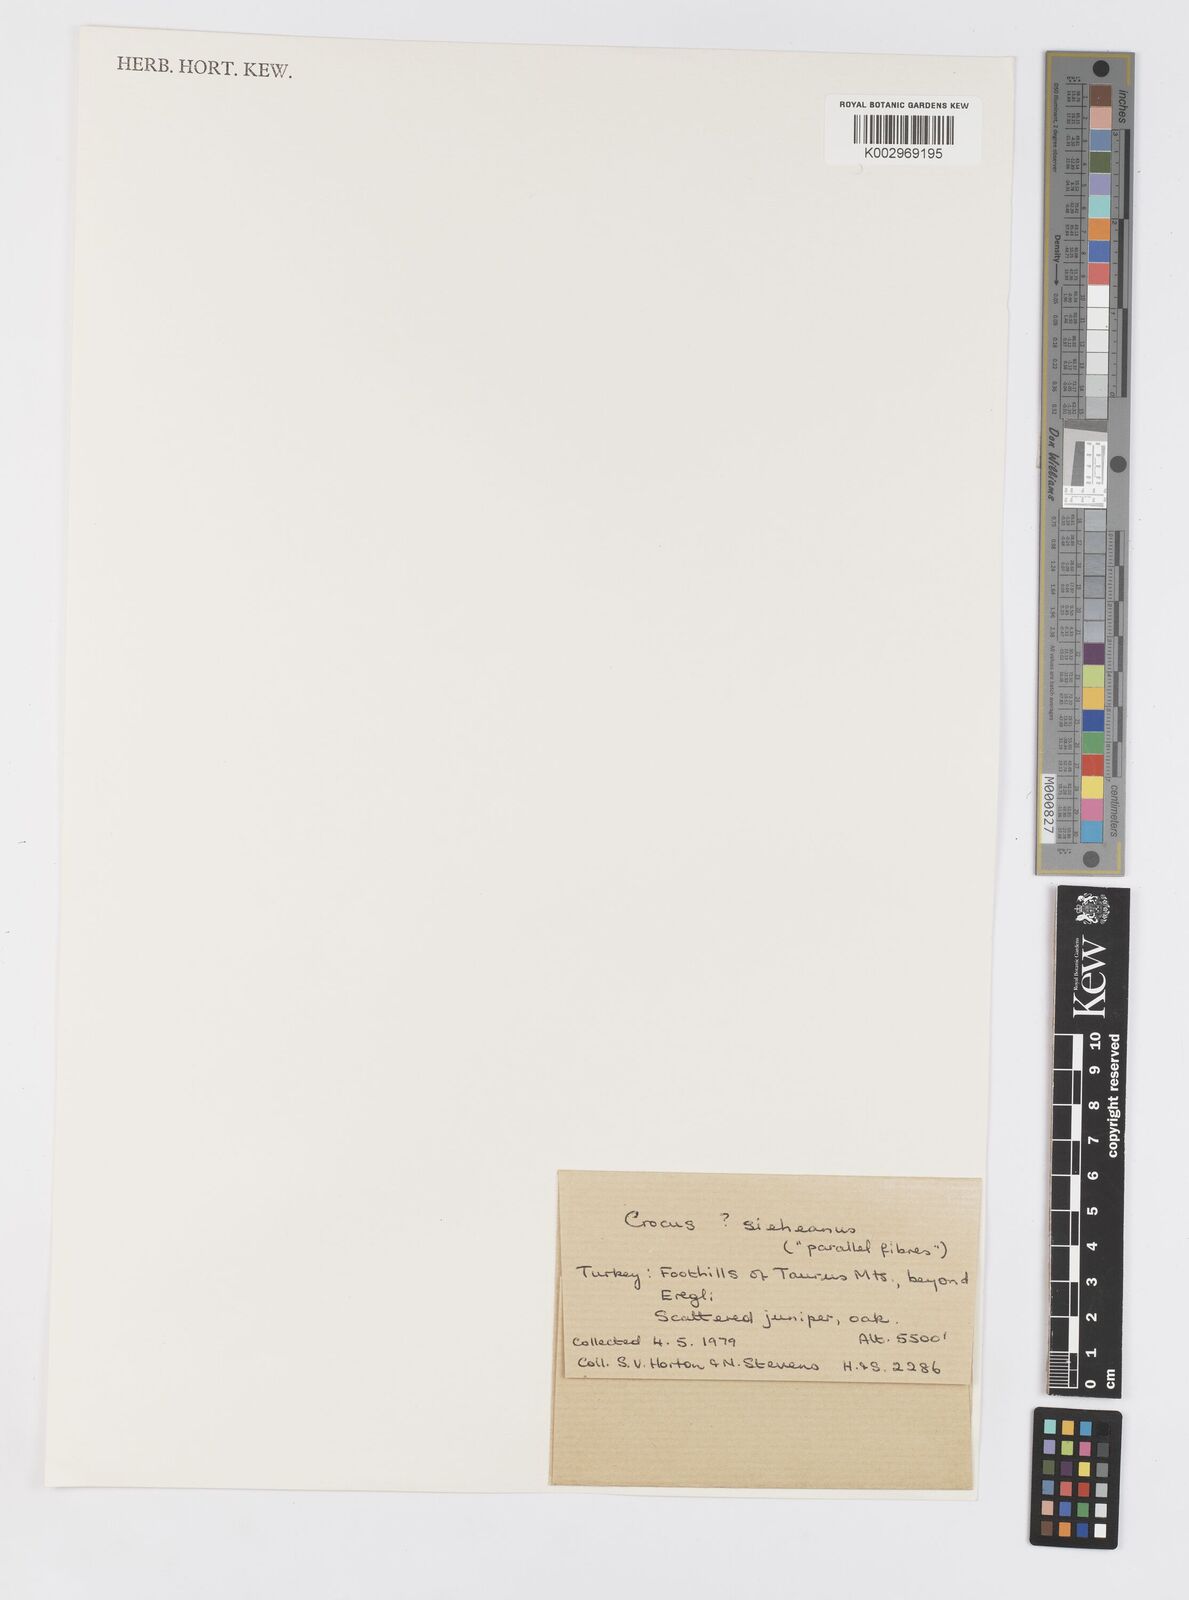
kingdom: Plantae
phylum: Tracheophyta
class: Liliopsida
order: Asparagales
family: Iridaceae
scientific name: Iridaceae
